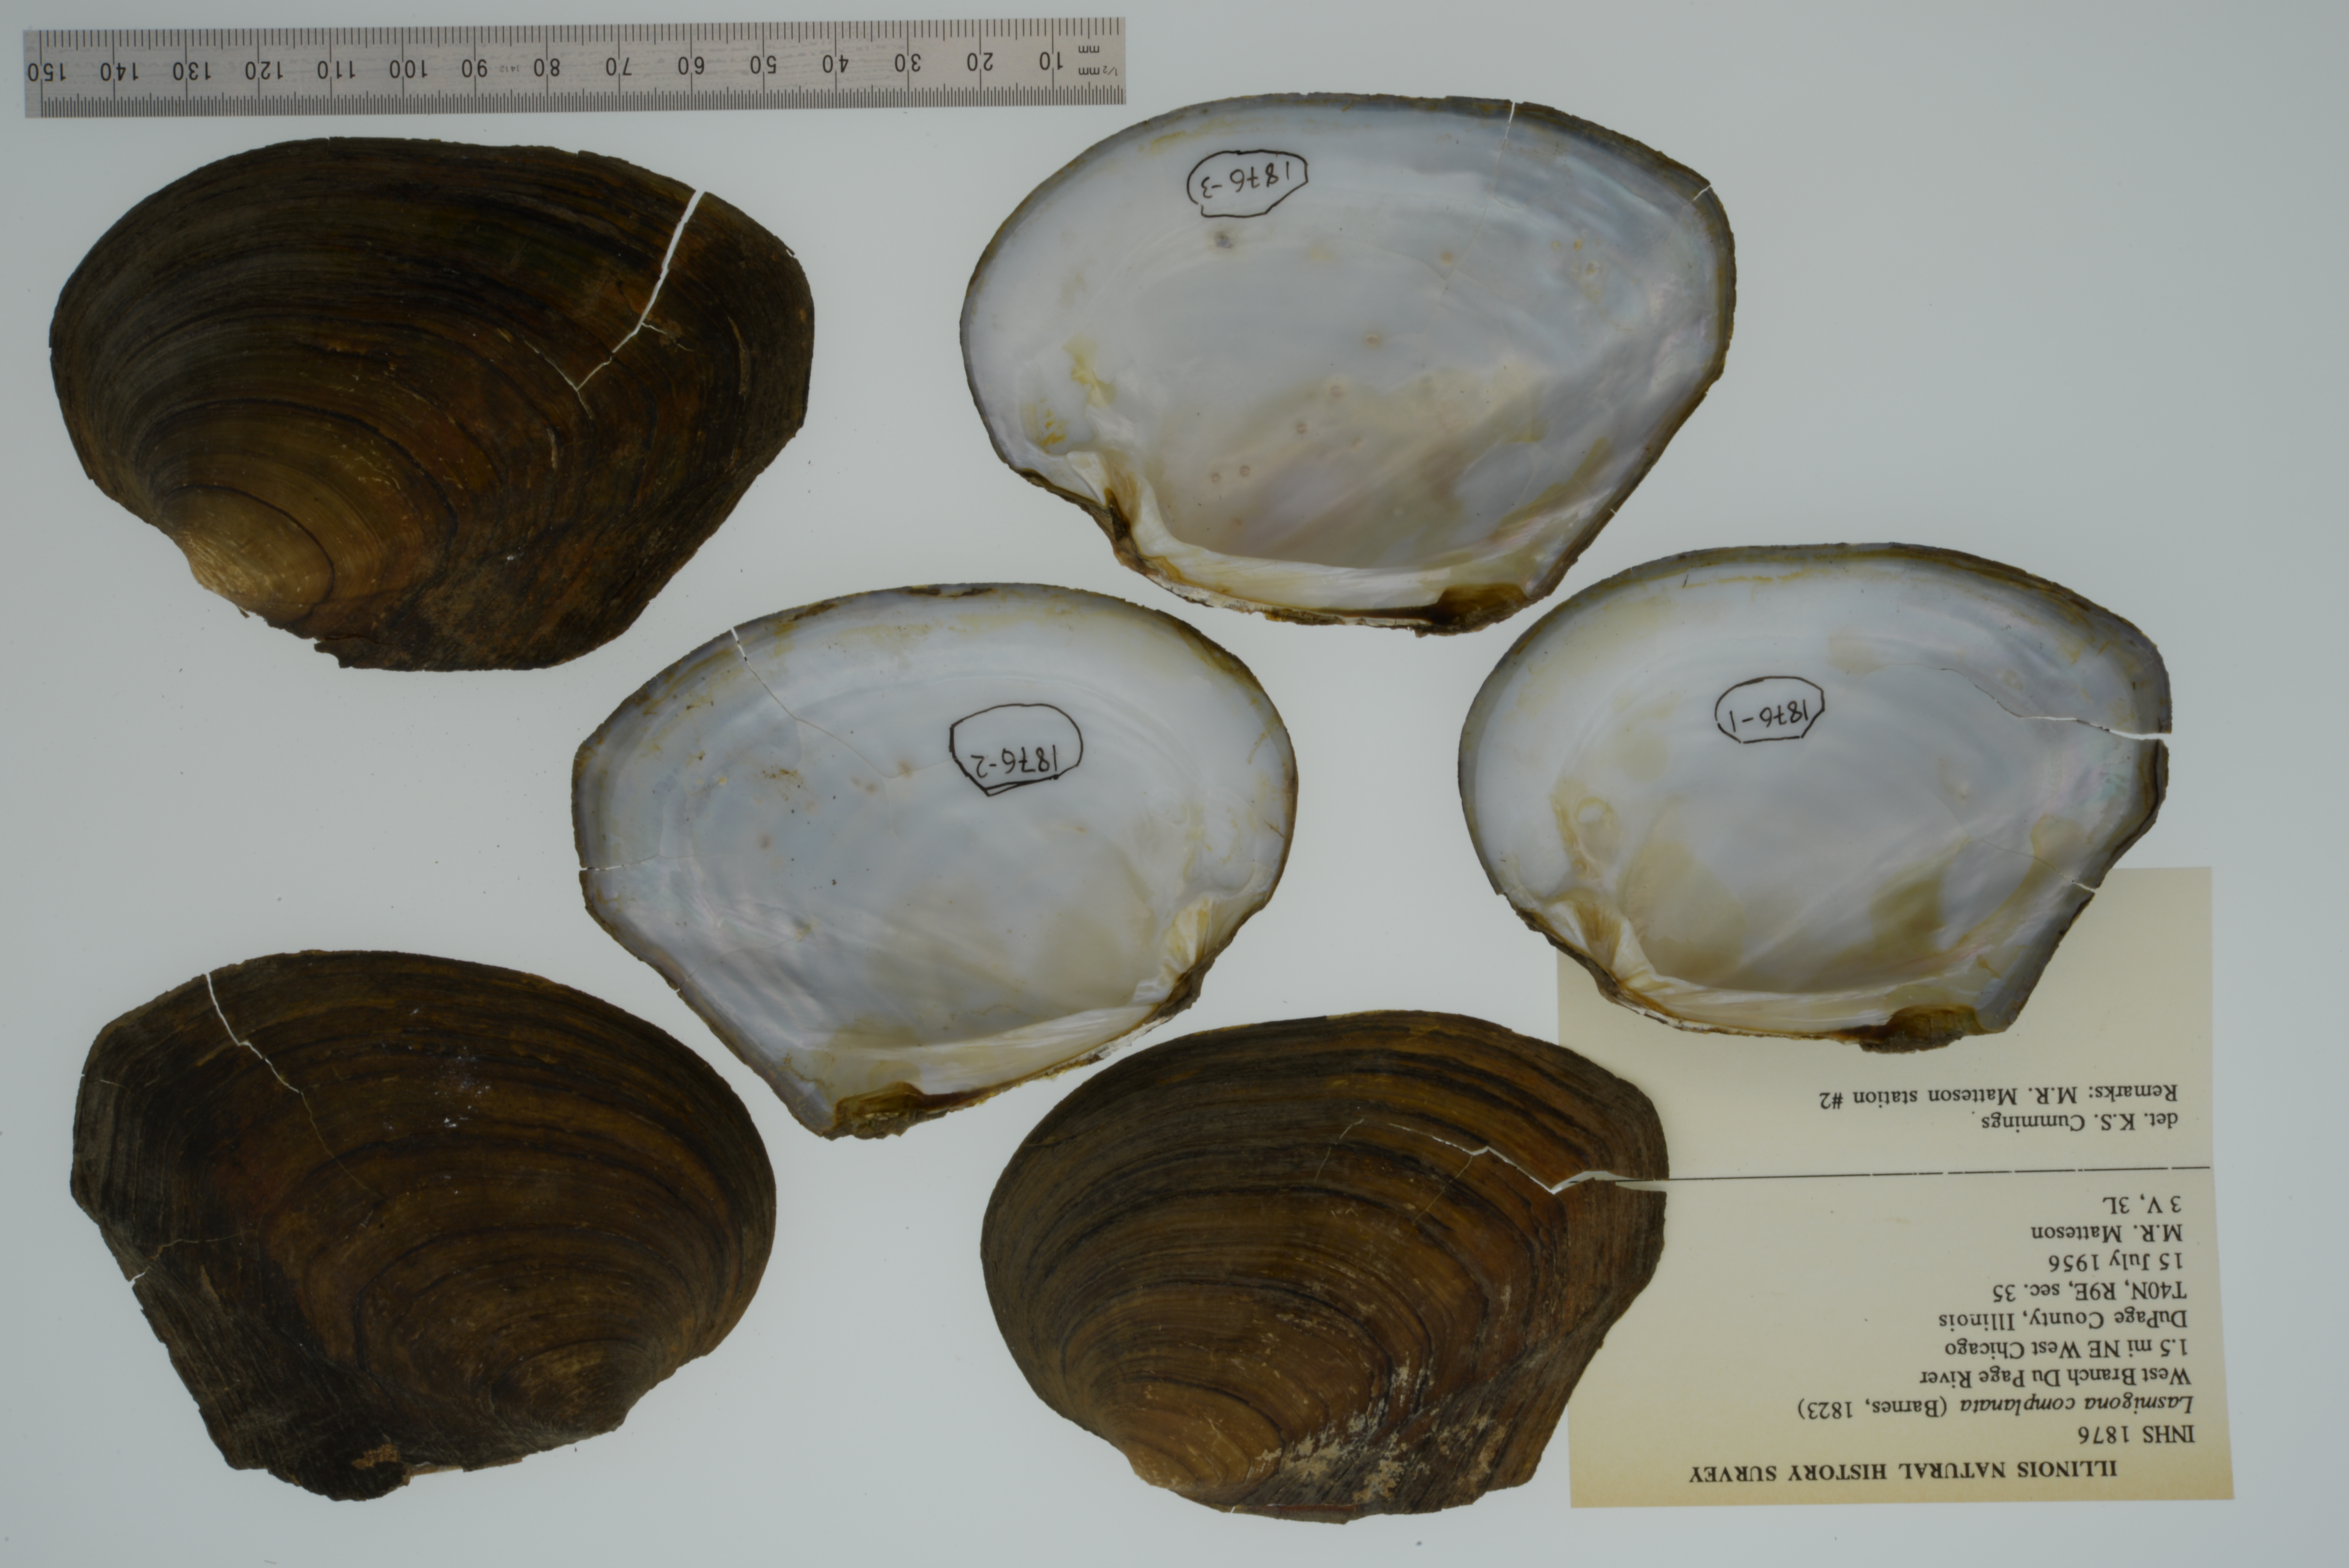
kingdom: Animalia
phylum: Mollusca
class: Bivalvia
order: Unionida
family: Unionidae
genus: Lasmigona
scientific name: Lasmigona complanata
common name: White heelsplitter
